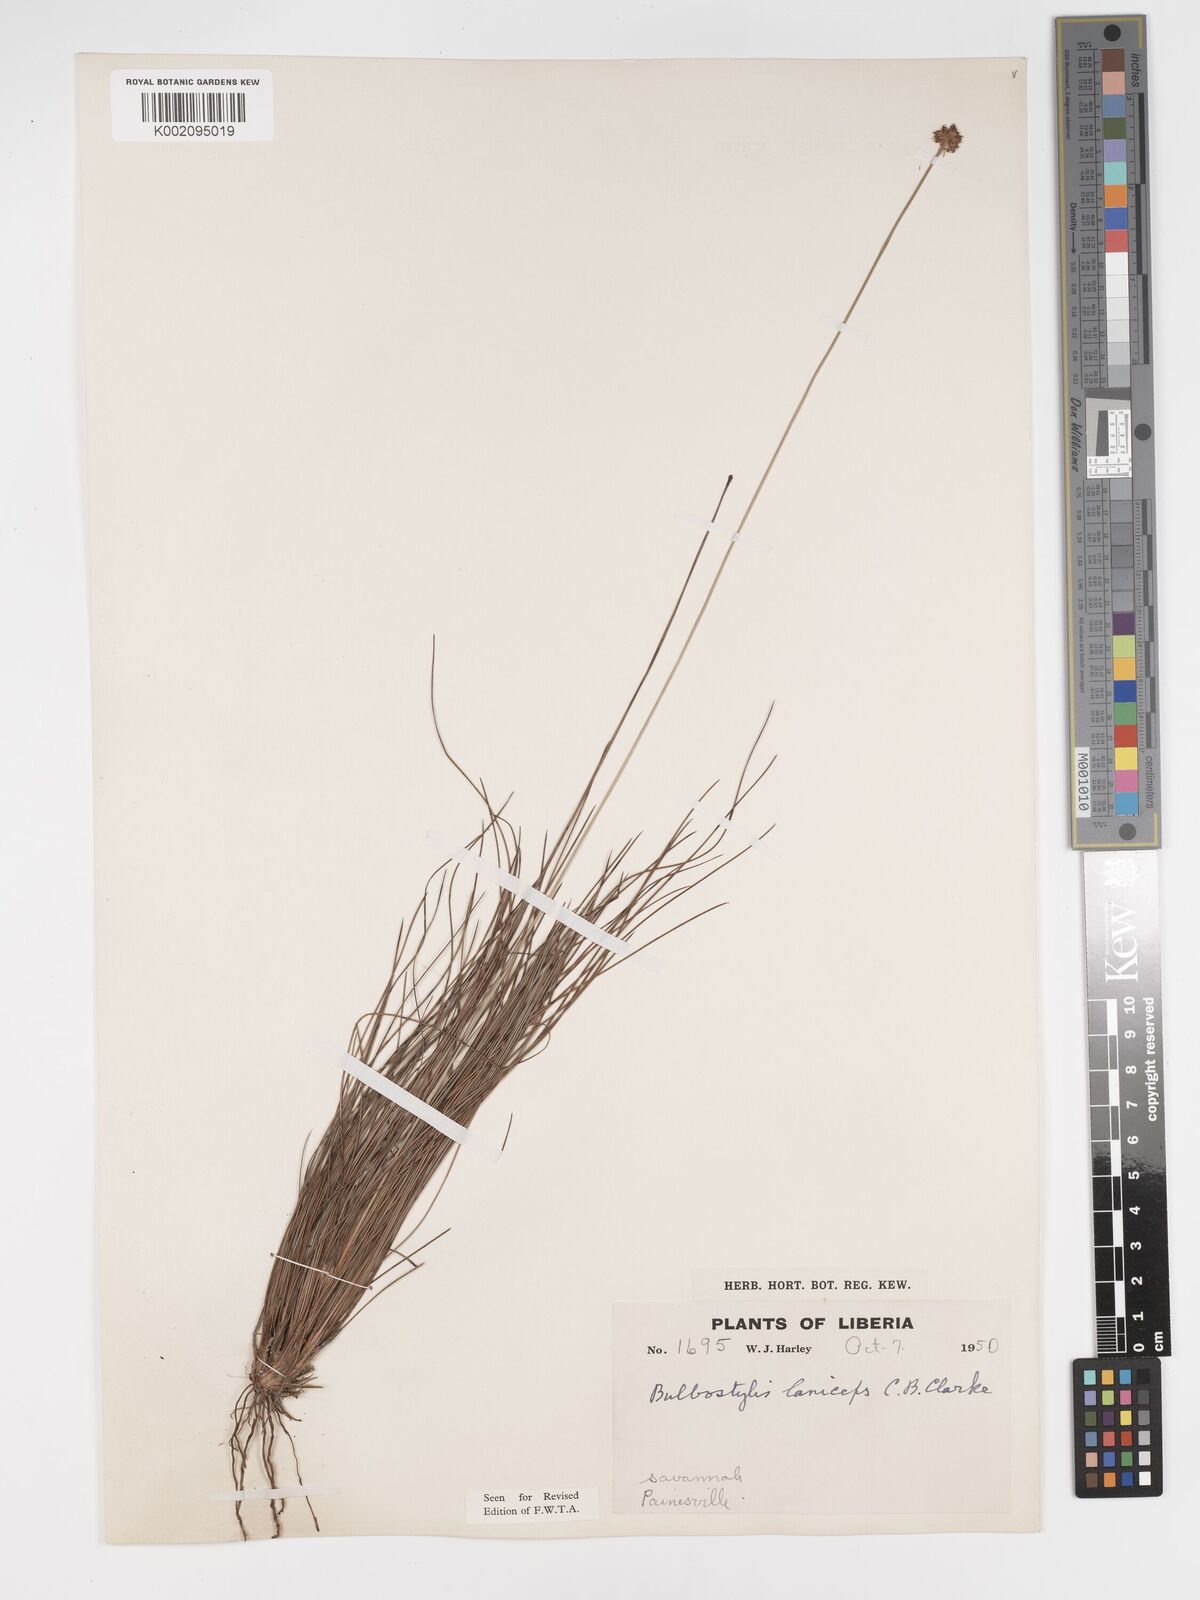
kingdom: Plantae
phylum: Tracheophyta
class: Liliopsida
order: Poales
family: Cyperaceae
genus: Bulbostylis
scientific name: Bulbostylis laniceps
